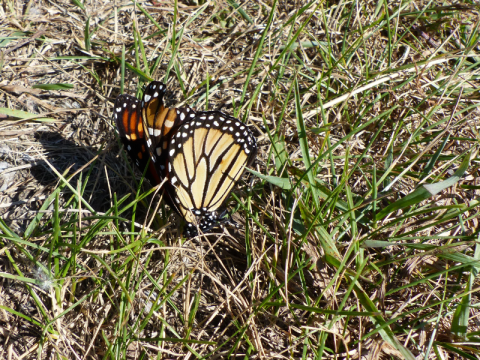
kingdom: Animalia
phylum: Arthropoda
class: Insecta
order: Lepidoptera
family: Nymphalidae
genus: Danaus
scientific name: Danaus plexippus
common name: Monarch
